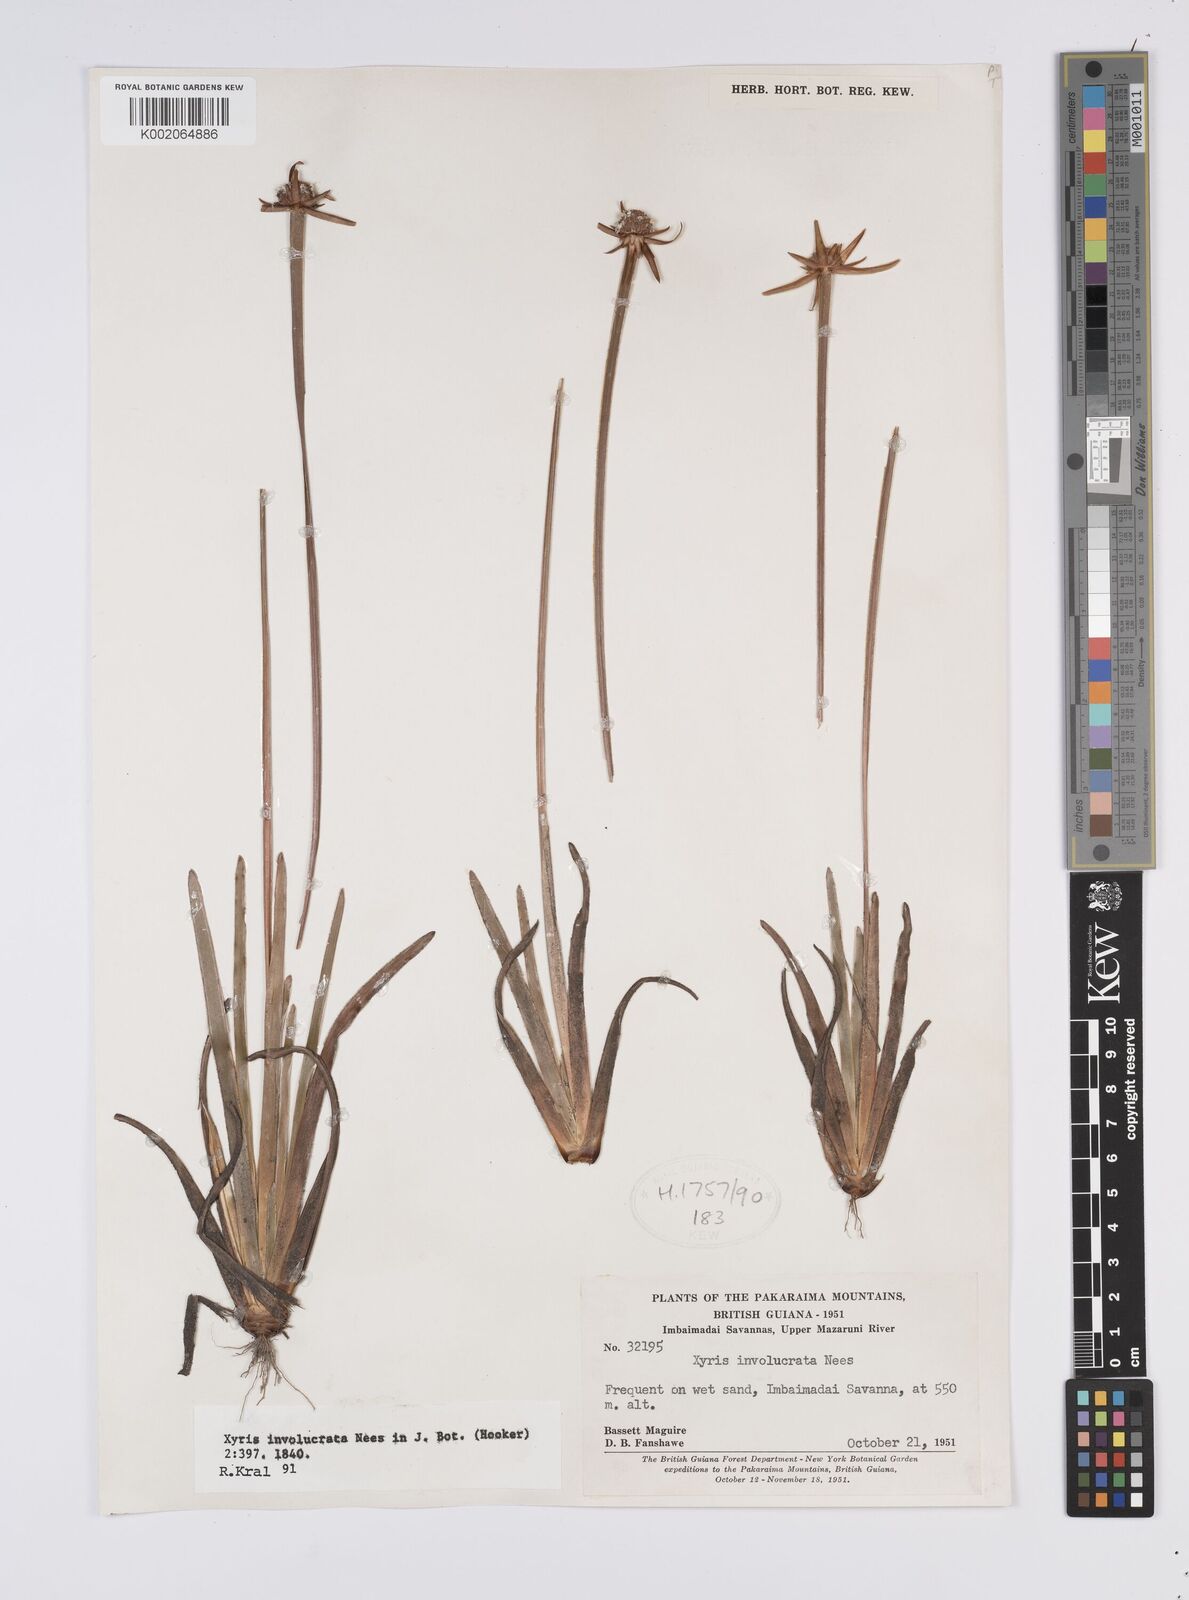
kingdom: Plantae
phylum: Tracheophyta
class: Liliopsida
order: Poales
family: Xyridaceae
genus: Xyris
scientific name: Xyris involucrata
